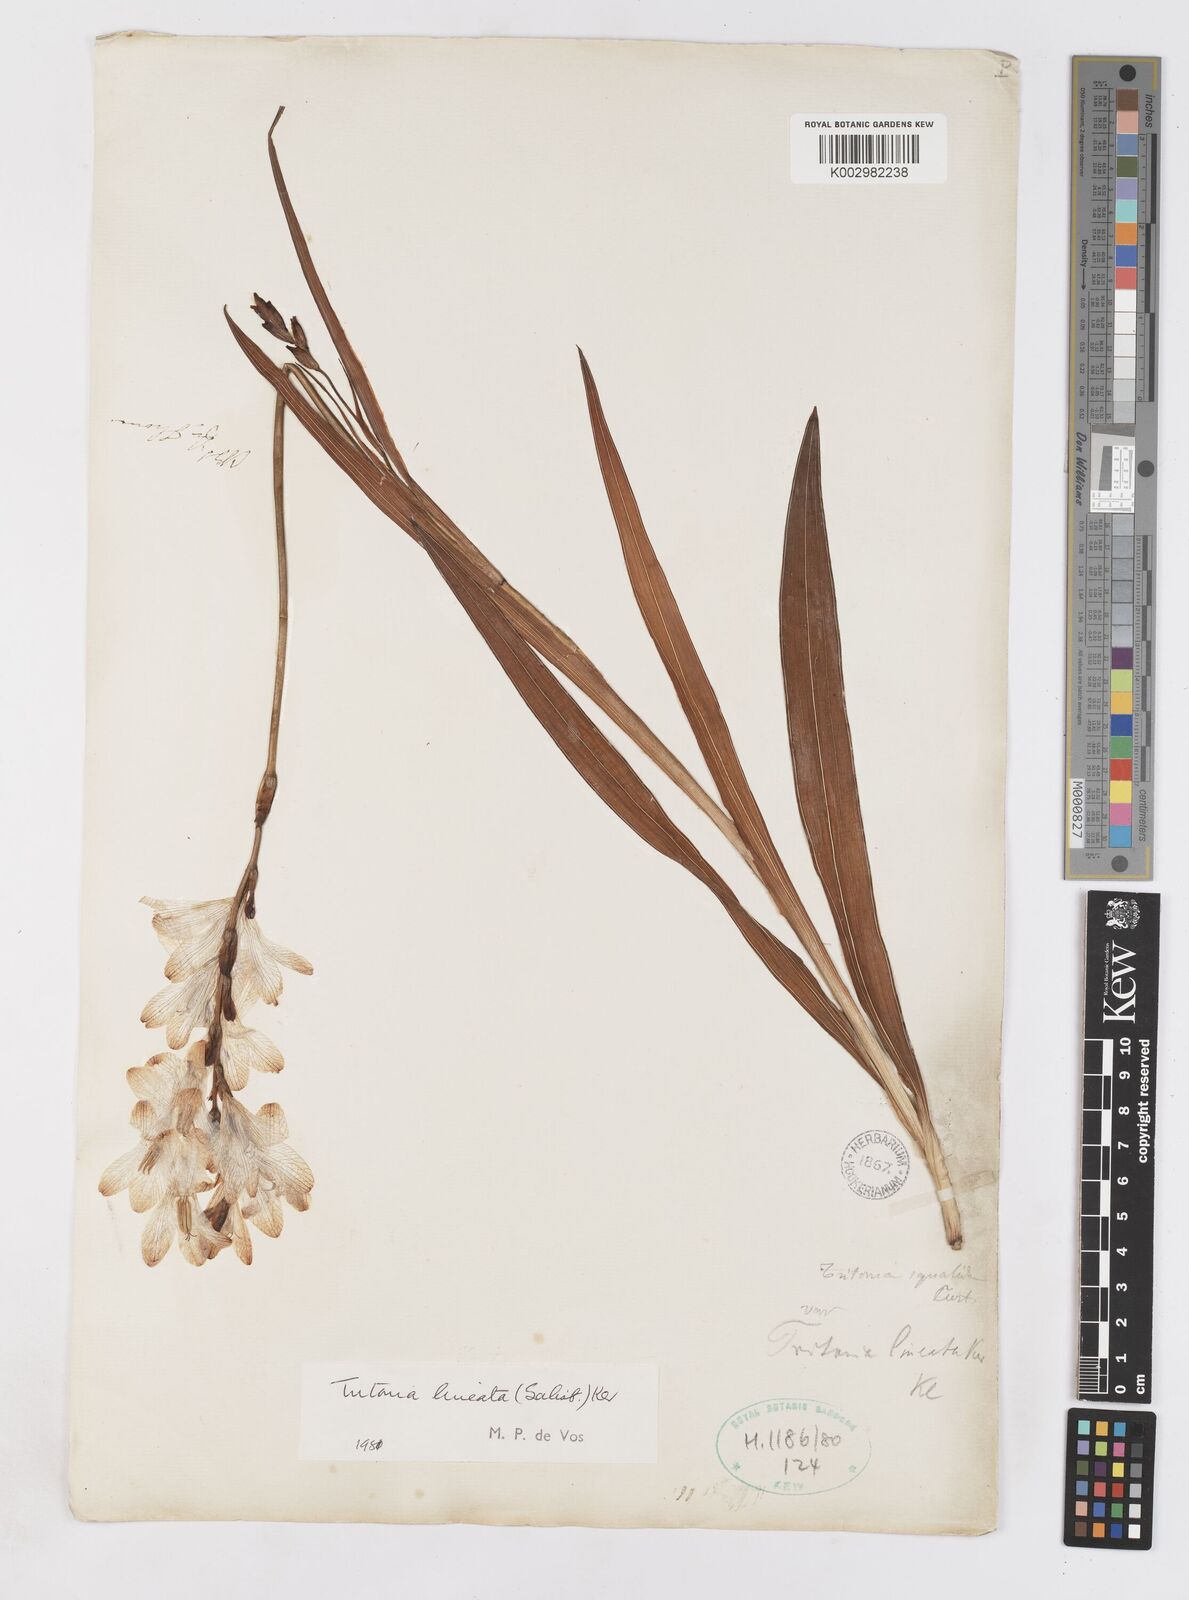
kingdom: Plantae
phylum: Tracheophyta
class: Liliopsida
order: Asparagales
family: Iridaceae
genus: Tritonia
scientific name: Tritonia gladiolaris
